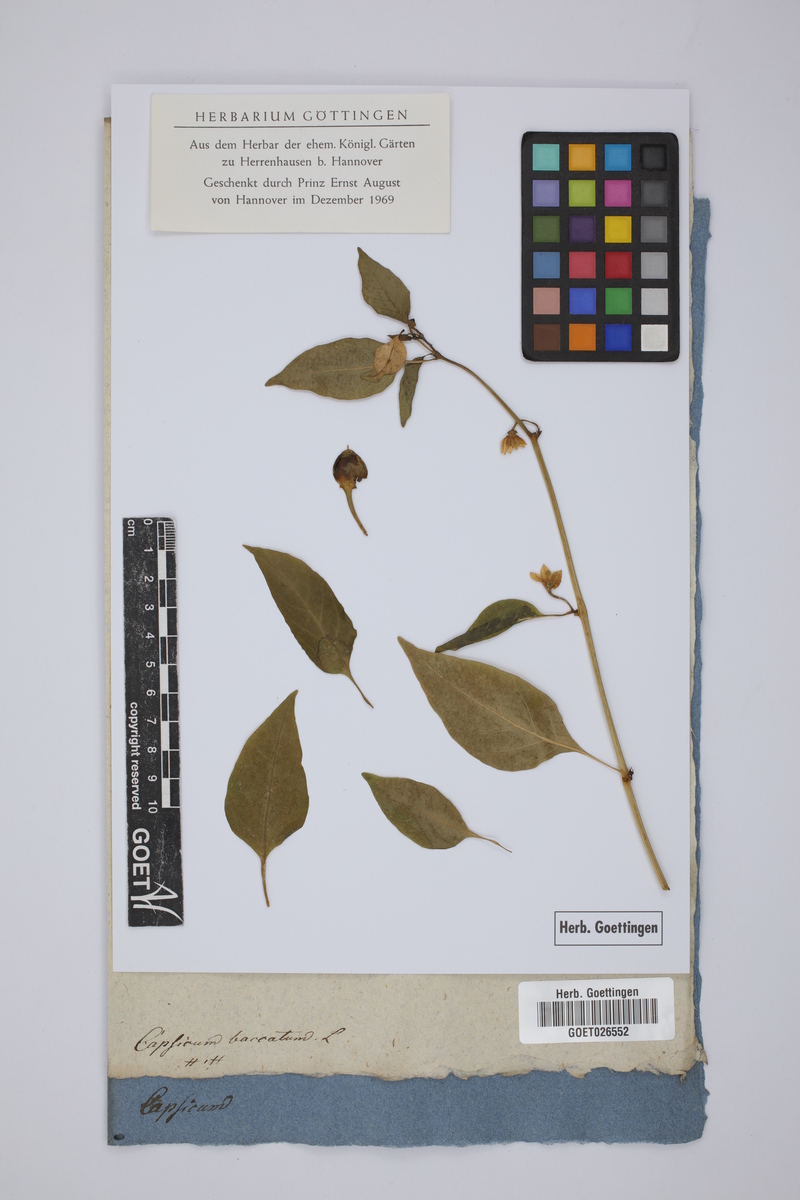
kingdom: Plantae
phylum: Tracheophyta
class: Magnoliopsida
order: Solanales
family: Solanaceae
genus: Capsicum
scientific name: Capsicum baccatum
